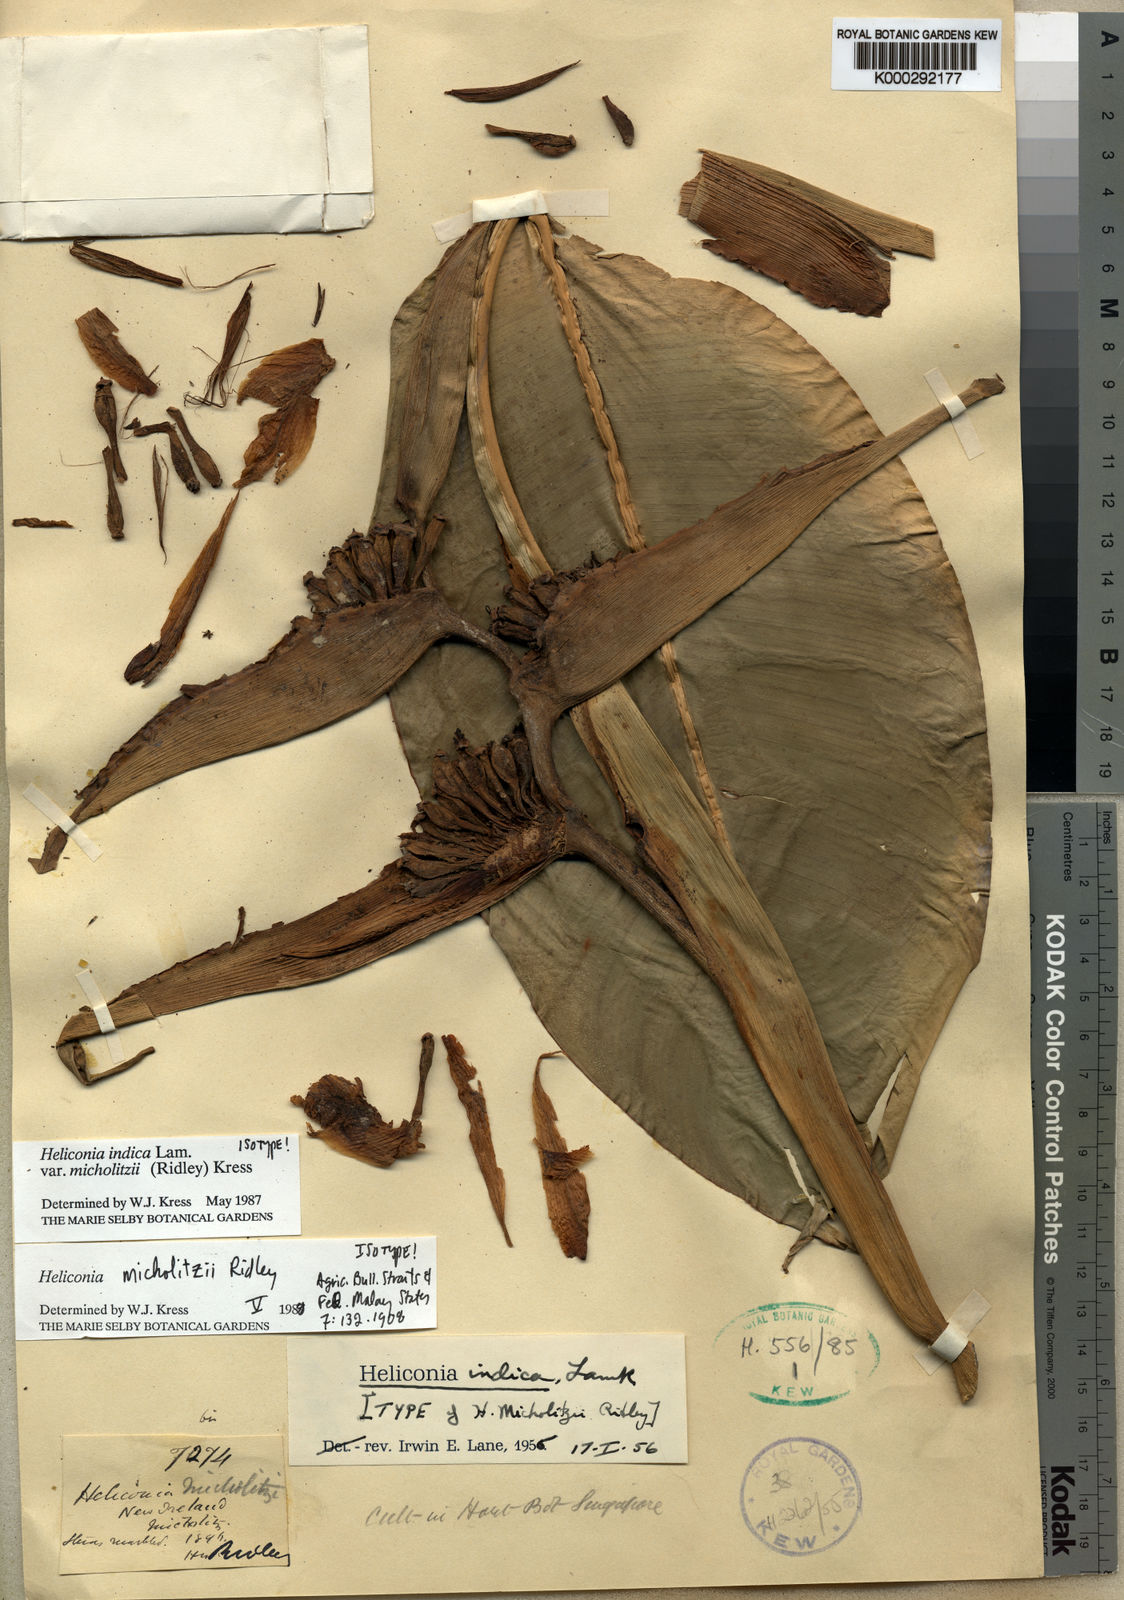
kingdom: Plantae
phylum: Tracheophyta
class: Liliopsida
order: Zingiberales
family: Heliconiaceae
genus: Heliconia
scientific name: Heliconia indica
